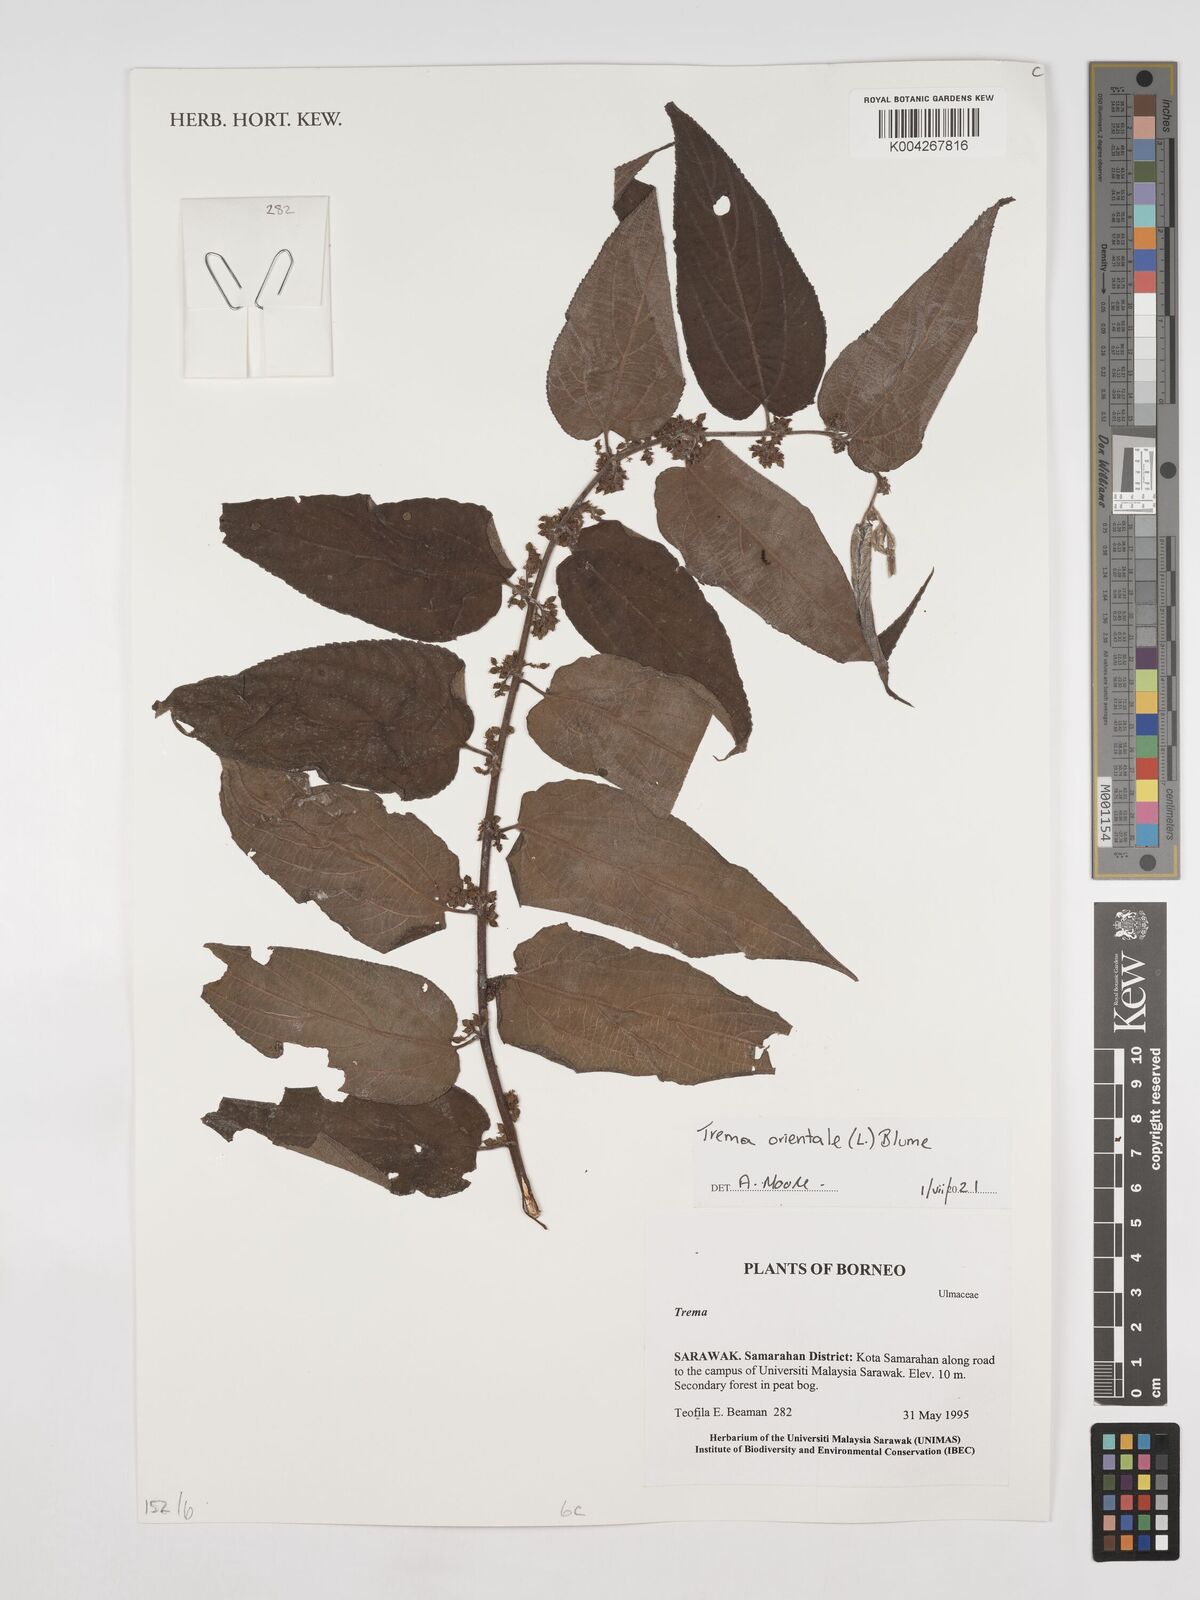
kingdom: Plantae
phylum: Tracheophyta
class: Magnoliopsida
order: Rosales
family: Cannabaceae
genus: Trema
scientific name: Trema orientale
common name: Indian charcoal tree
